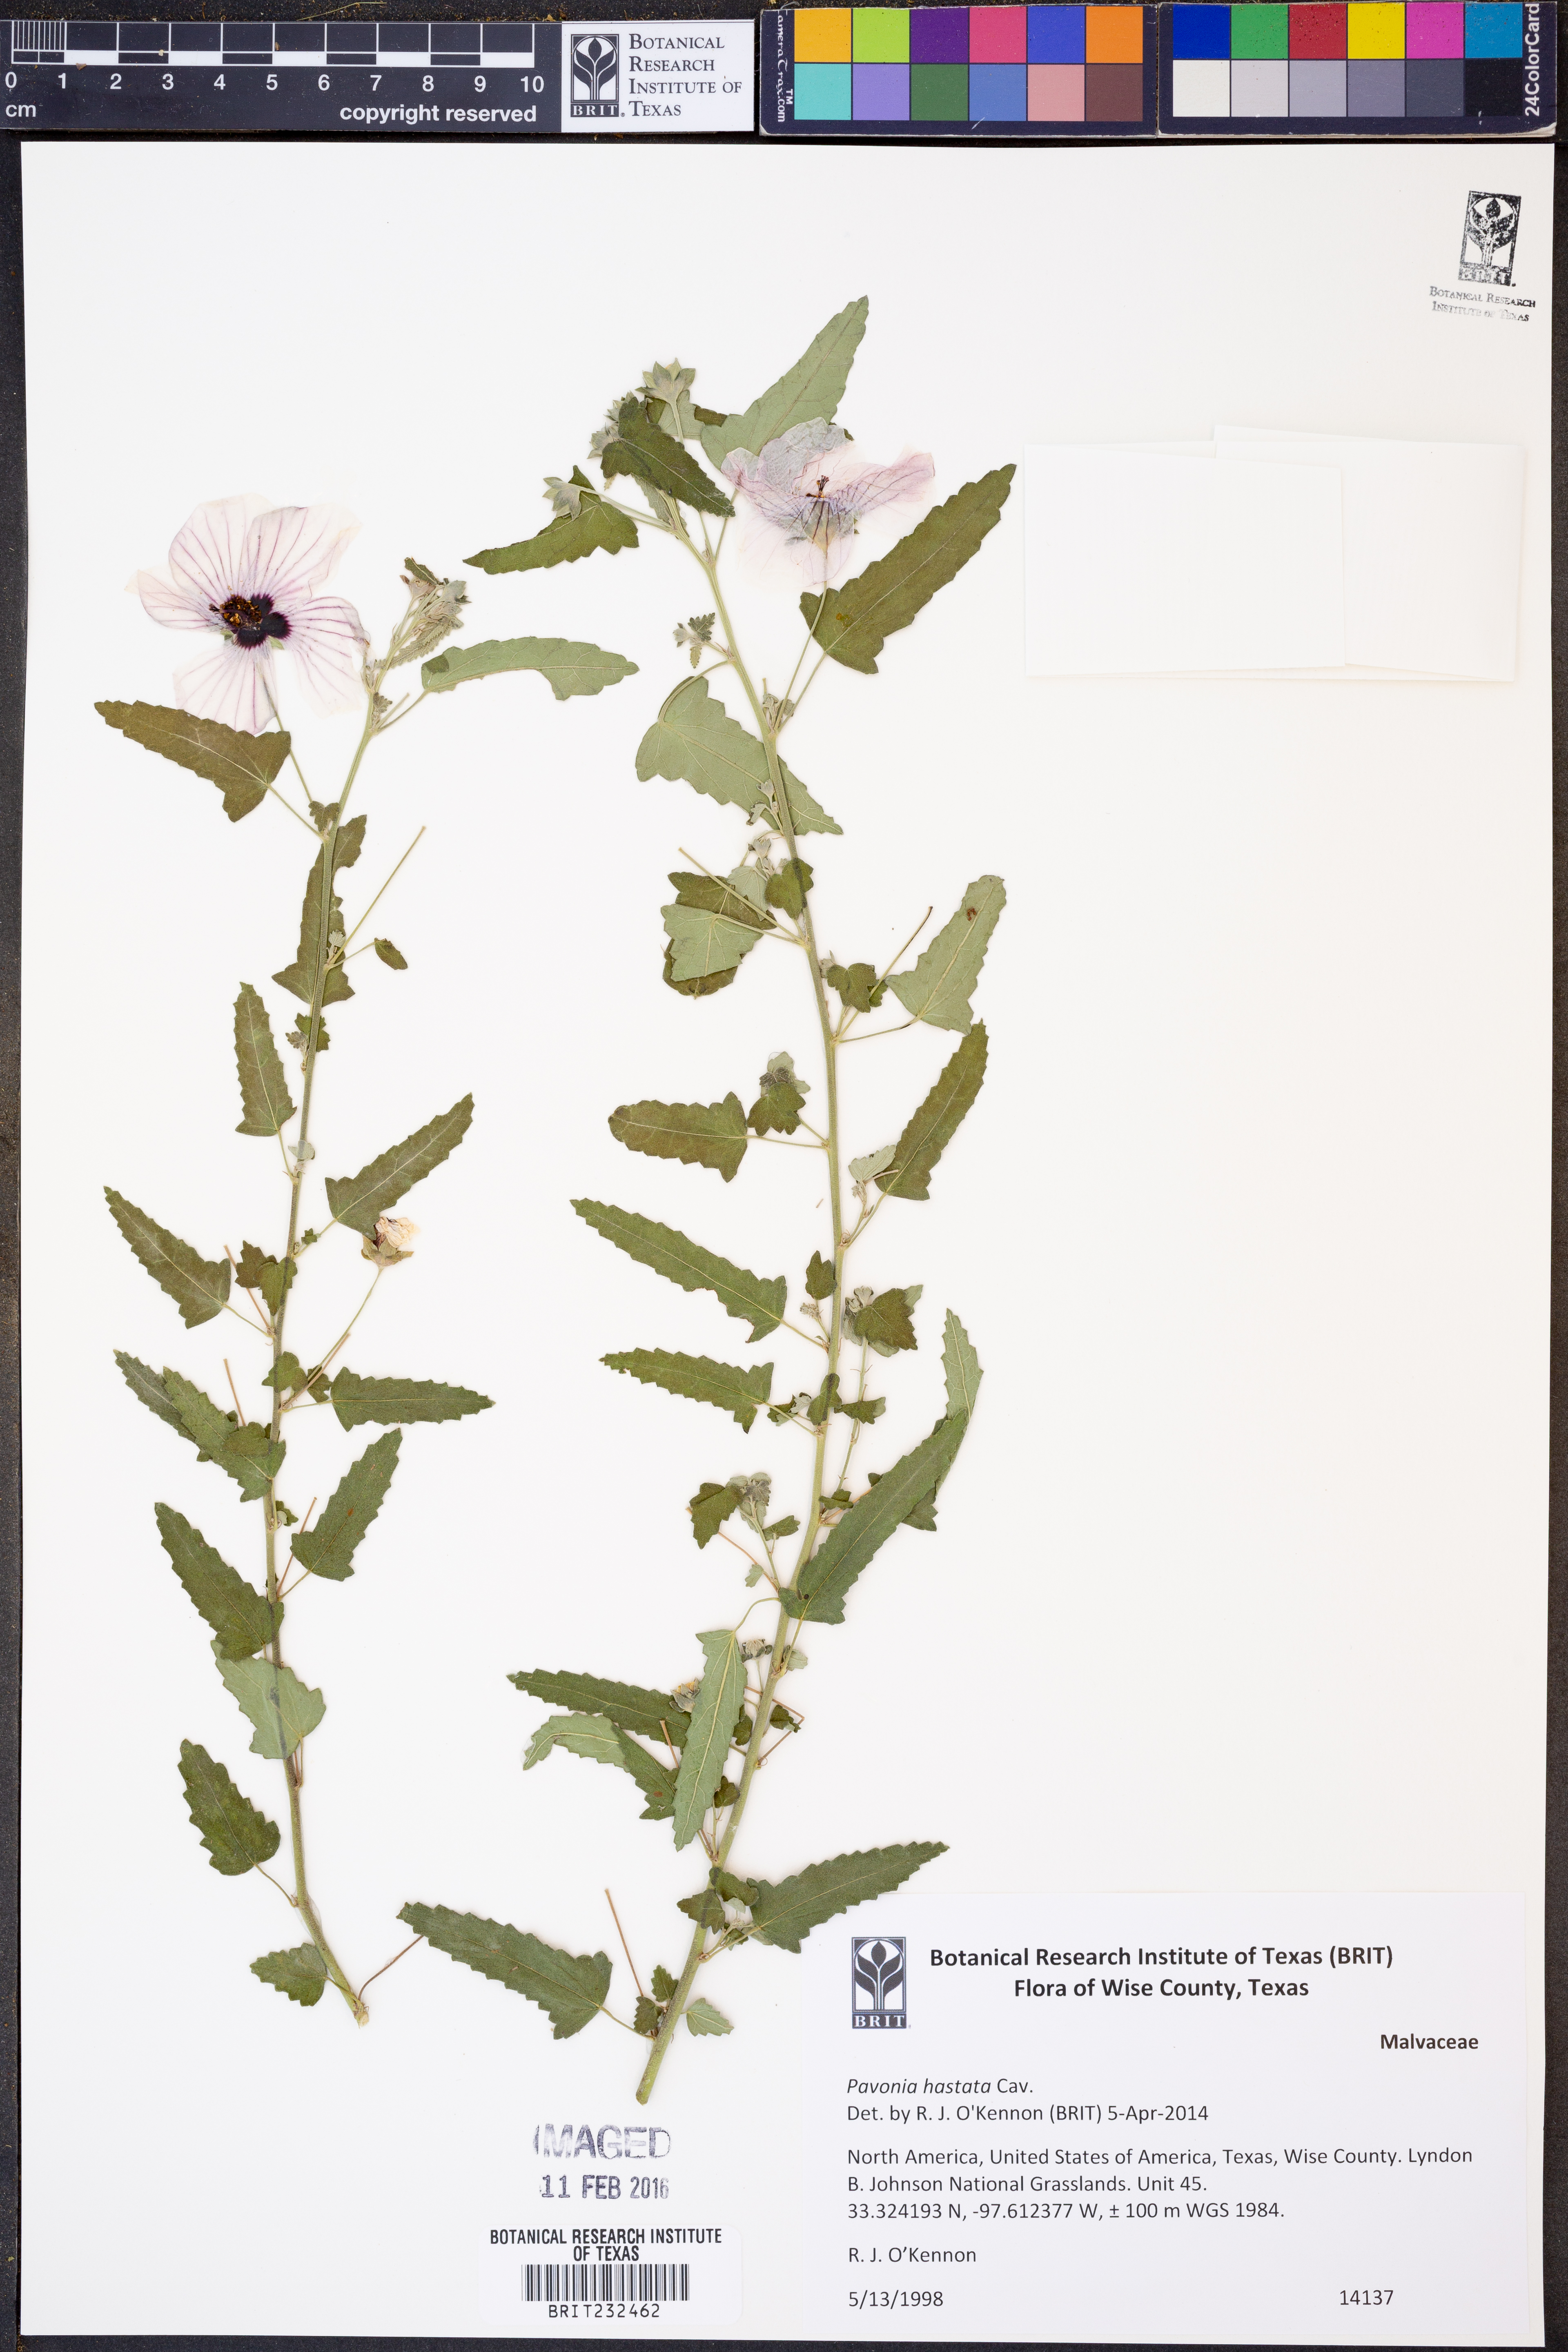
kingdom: Plantae
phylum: Tracheophyta
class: Magnoliopsida
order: Malvales
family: Malvaceae
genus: Pavonia
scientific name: Pavonia hastata
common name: Spearleaf swampmallow
